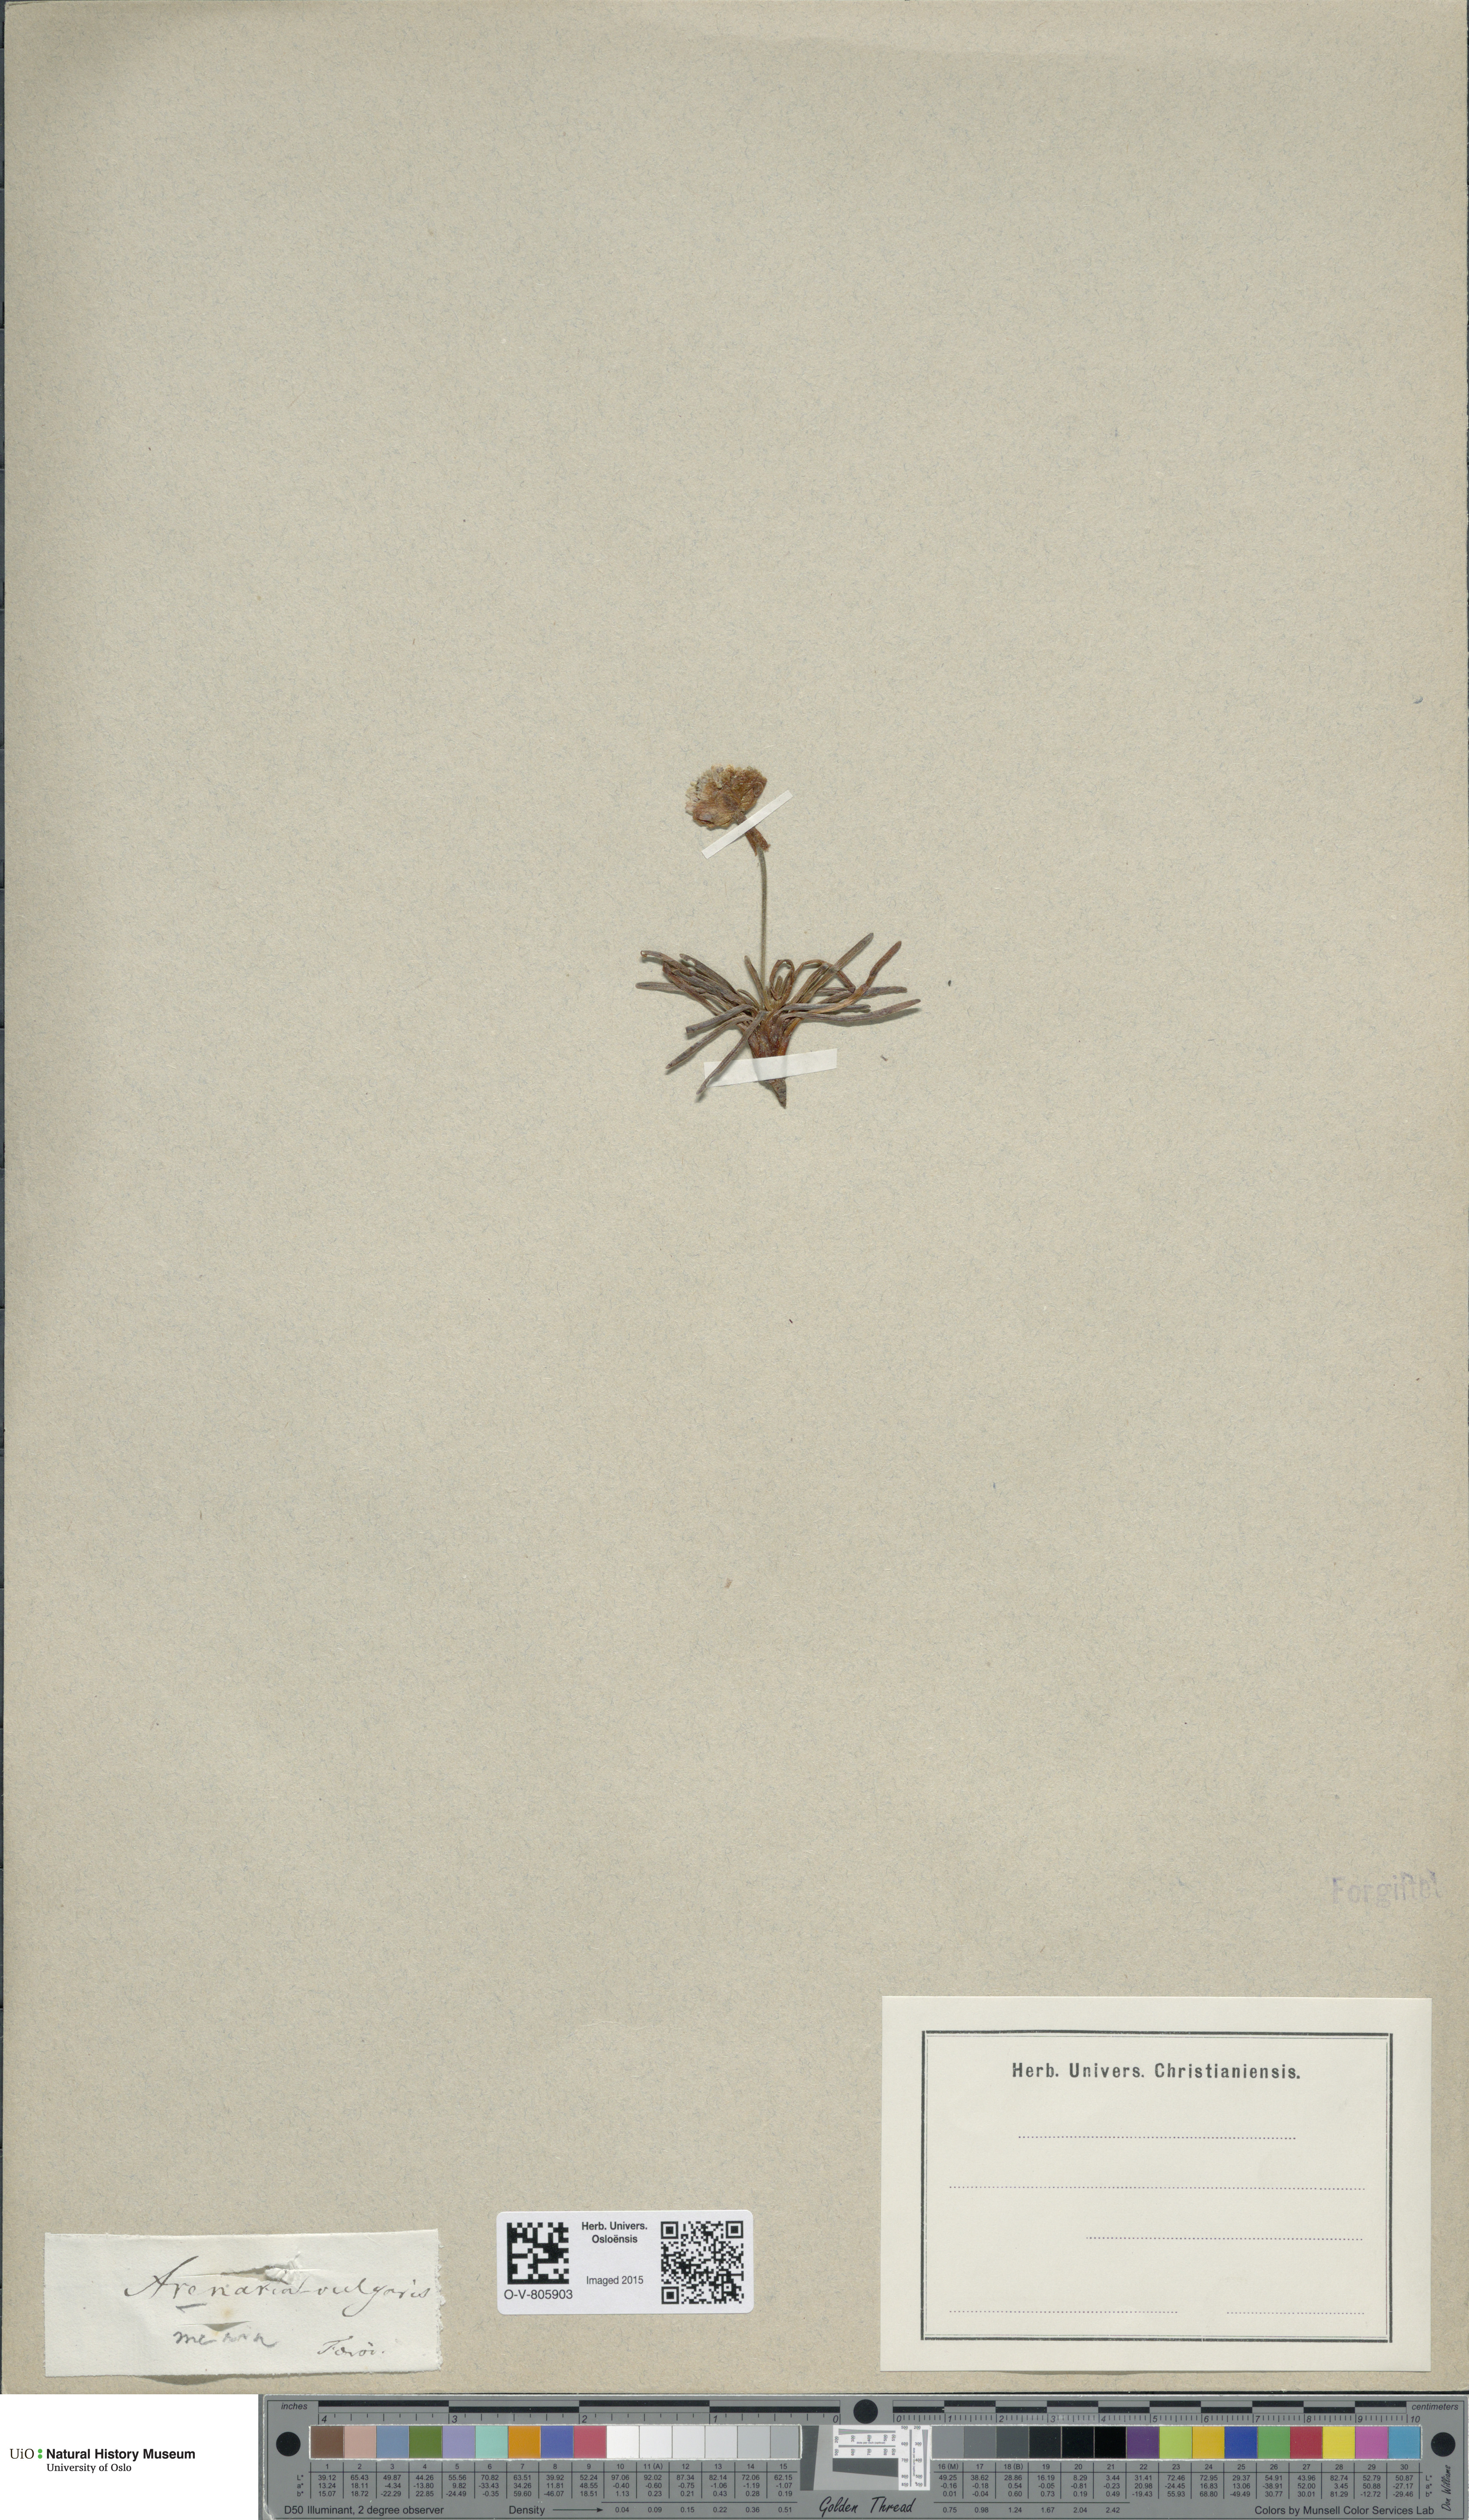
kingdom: Plantae
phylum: Tracheophyta
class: Magnoliopsida
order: Caryophyllales
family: Plumbaginaceae
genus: Armeria
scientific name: Armeria maritima
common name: Thrift
